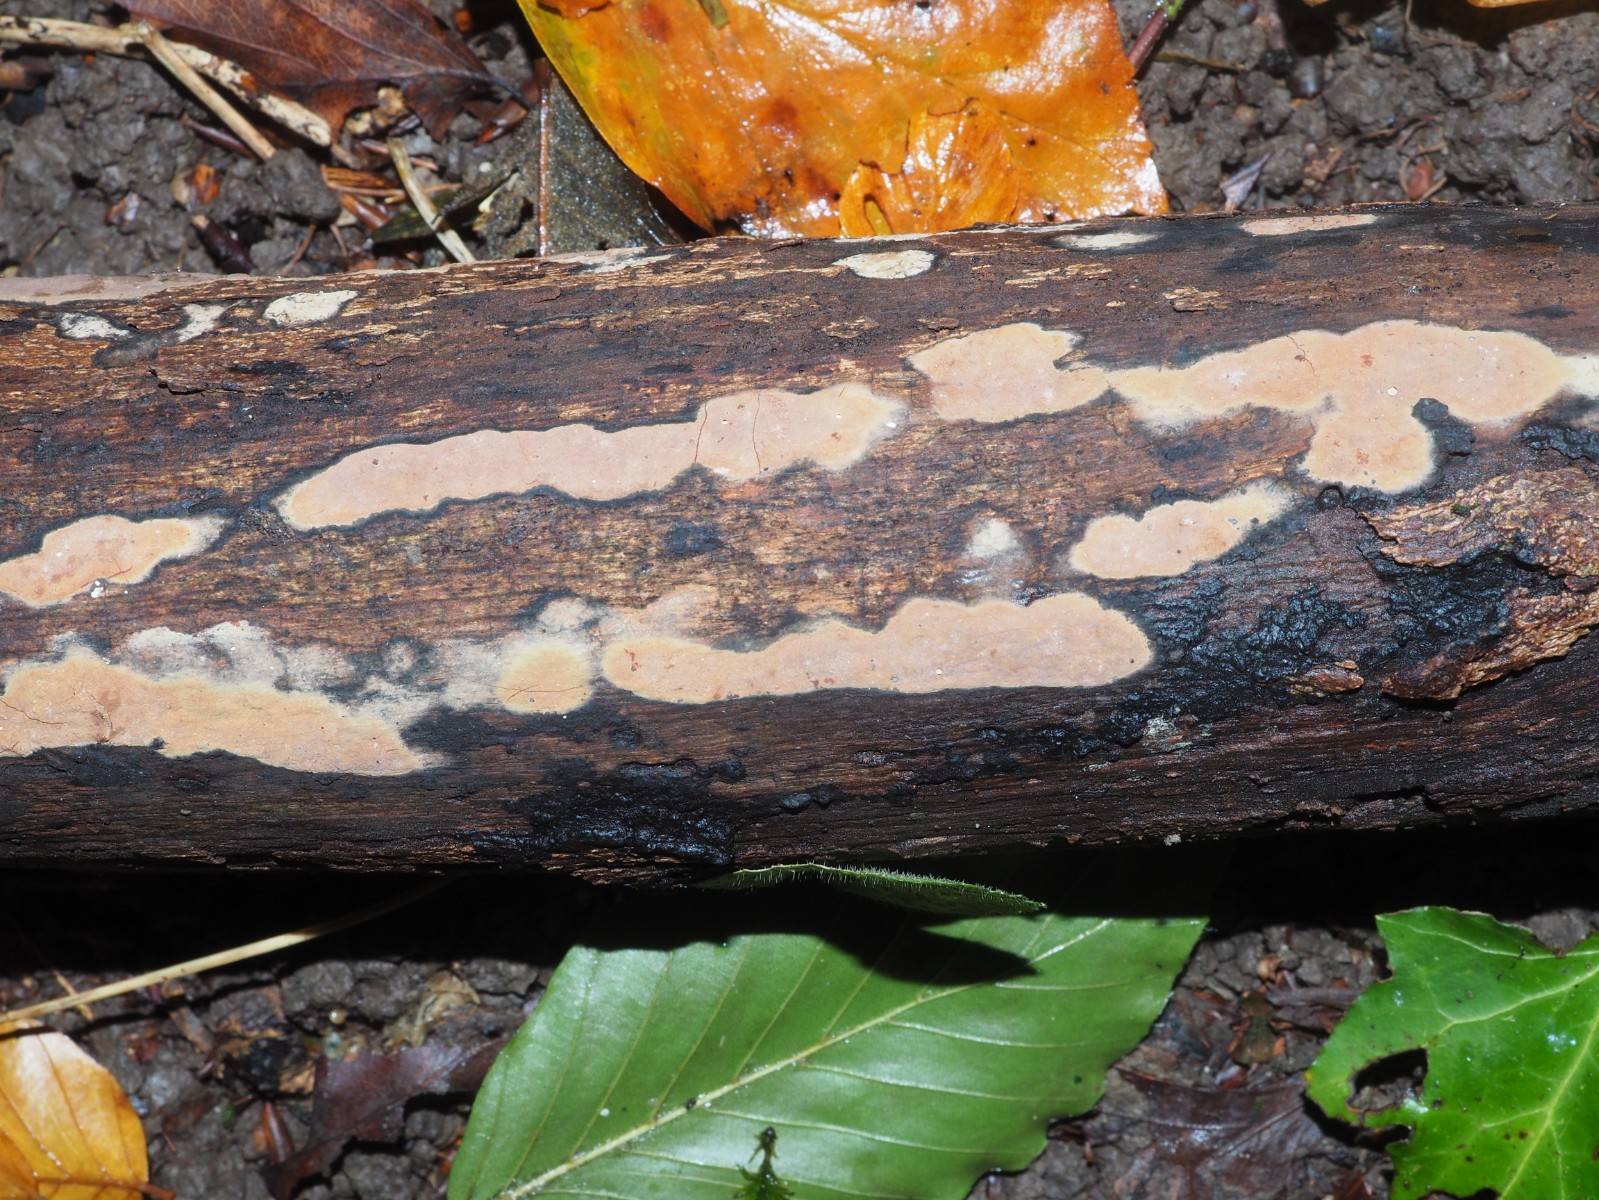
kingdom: Fungi
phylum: Ascomycota
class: Sordariomycetes
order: Xylariales
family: Hypoxylaceae
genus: Hypoxylon
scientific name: Hypoxylon petriniae
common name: nedsænket kulbær
